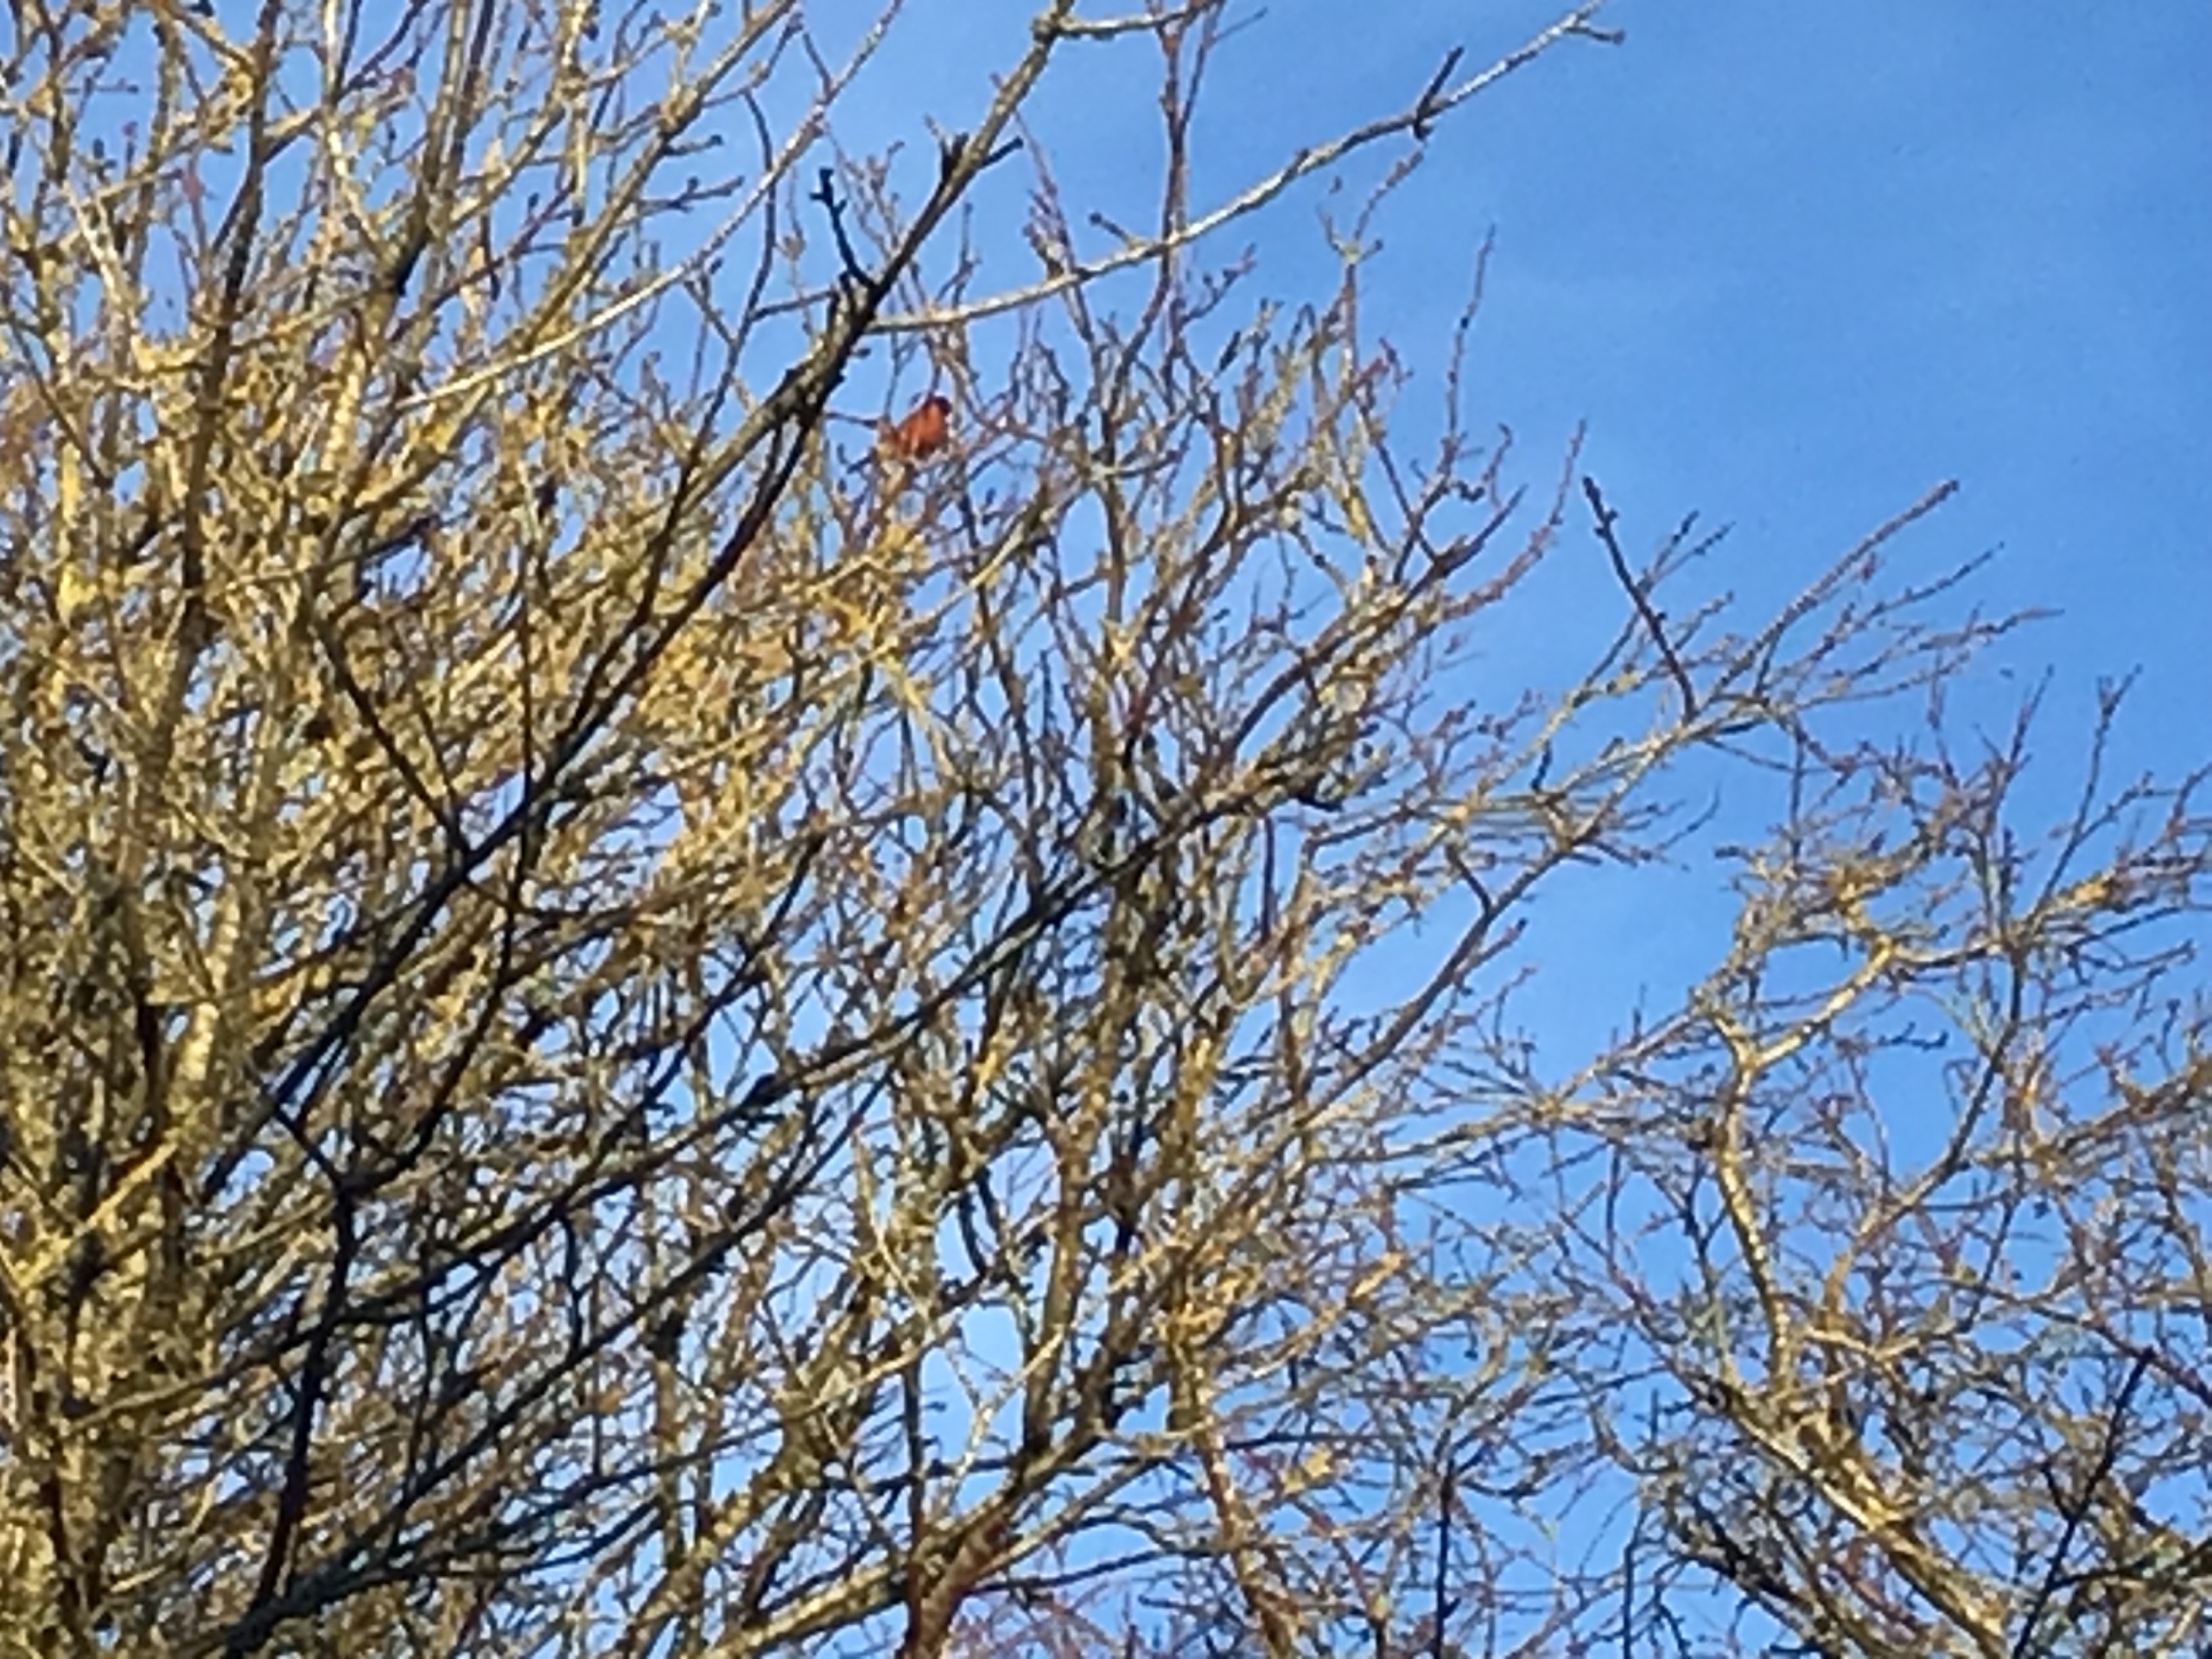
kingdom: Animalia
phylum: Chordata
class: Aves
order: Passeriformes
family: Fringillidae
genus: Pyrrhula
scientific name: Pyrrhula pyrrhula
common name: Dompap
